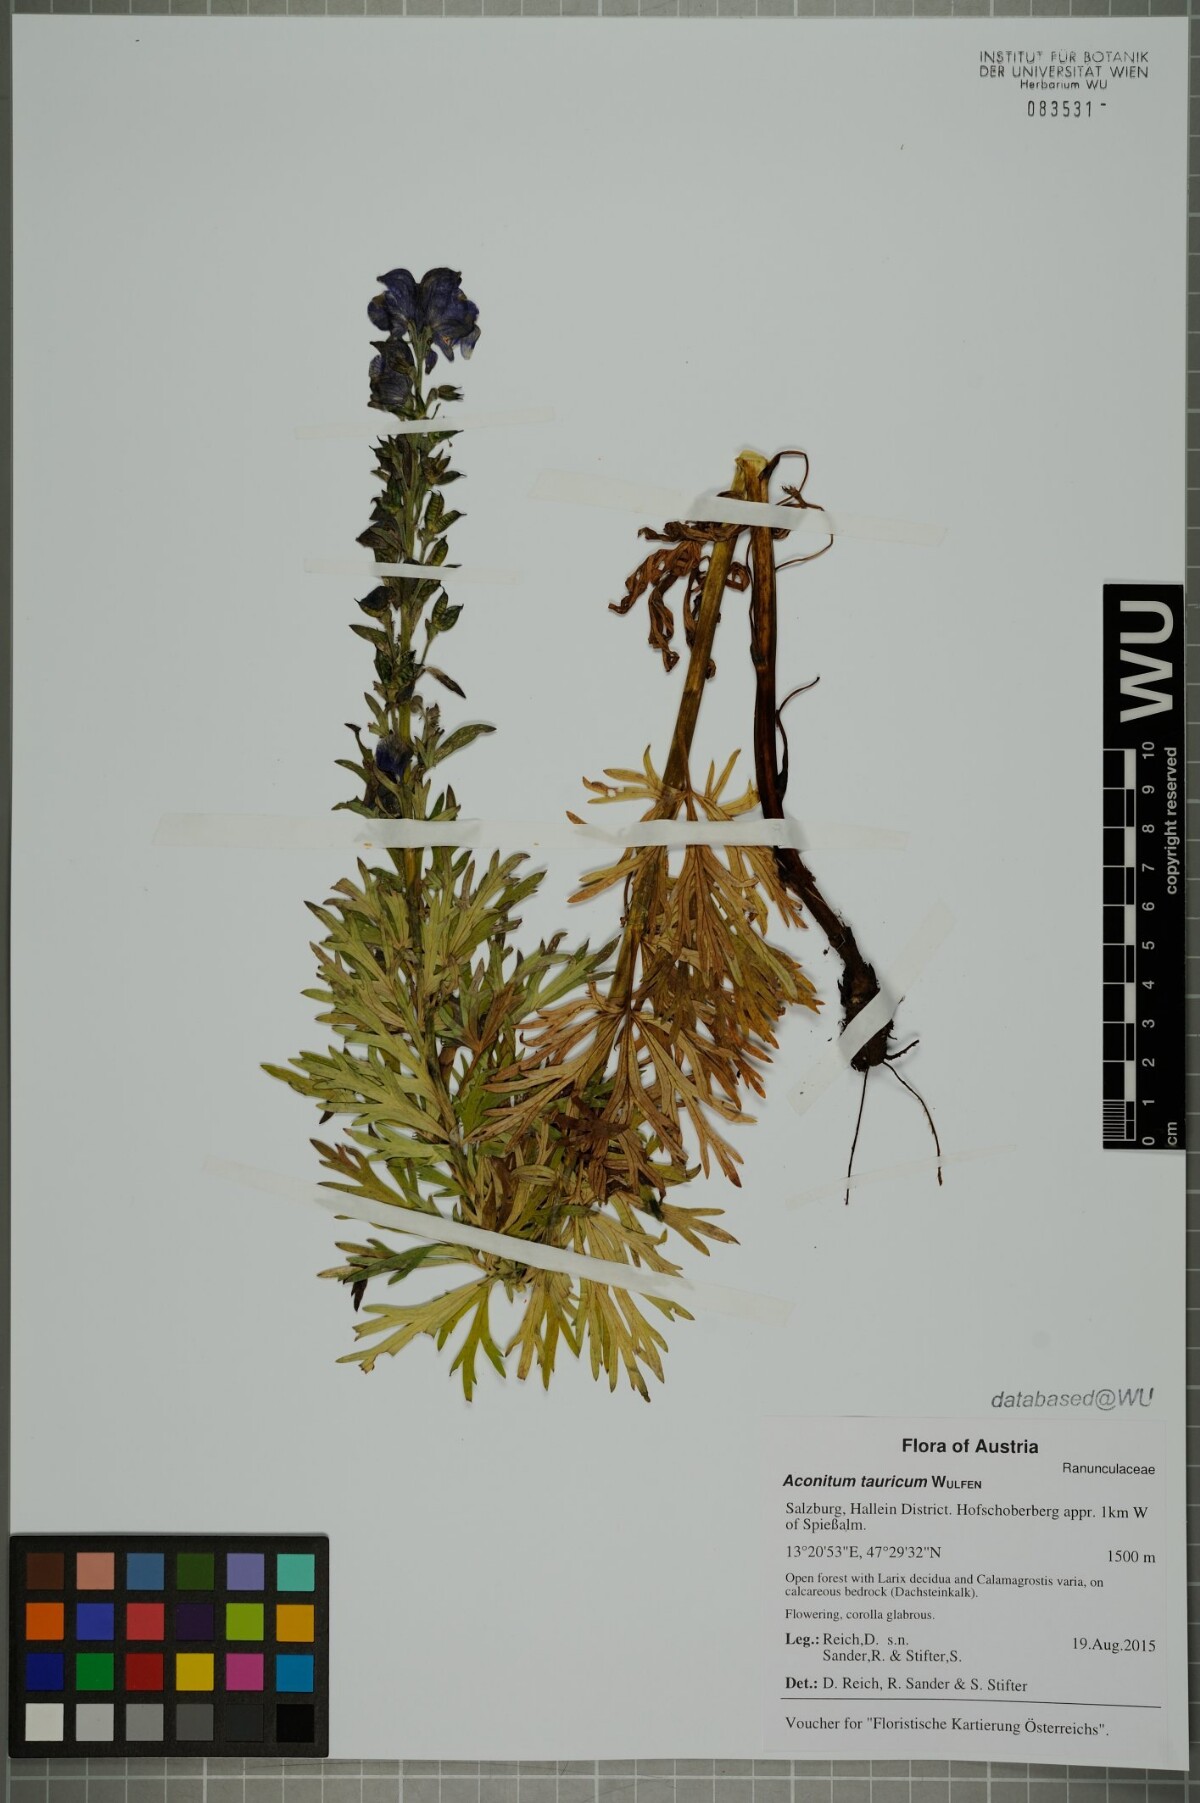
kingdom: Plantae
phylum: Tracheophyta
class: Magnoliopsida
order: Ranunculales
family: Ranunculaceae
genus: Aconitum
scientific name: Aconitum tauricum
